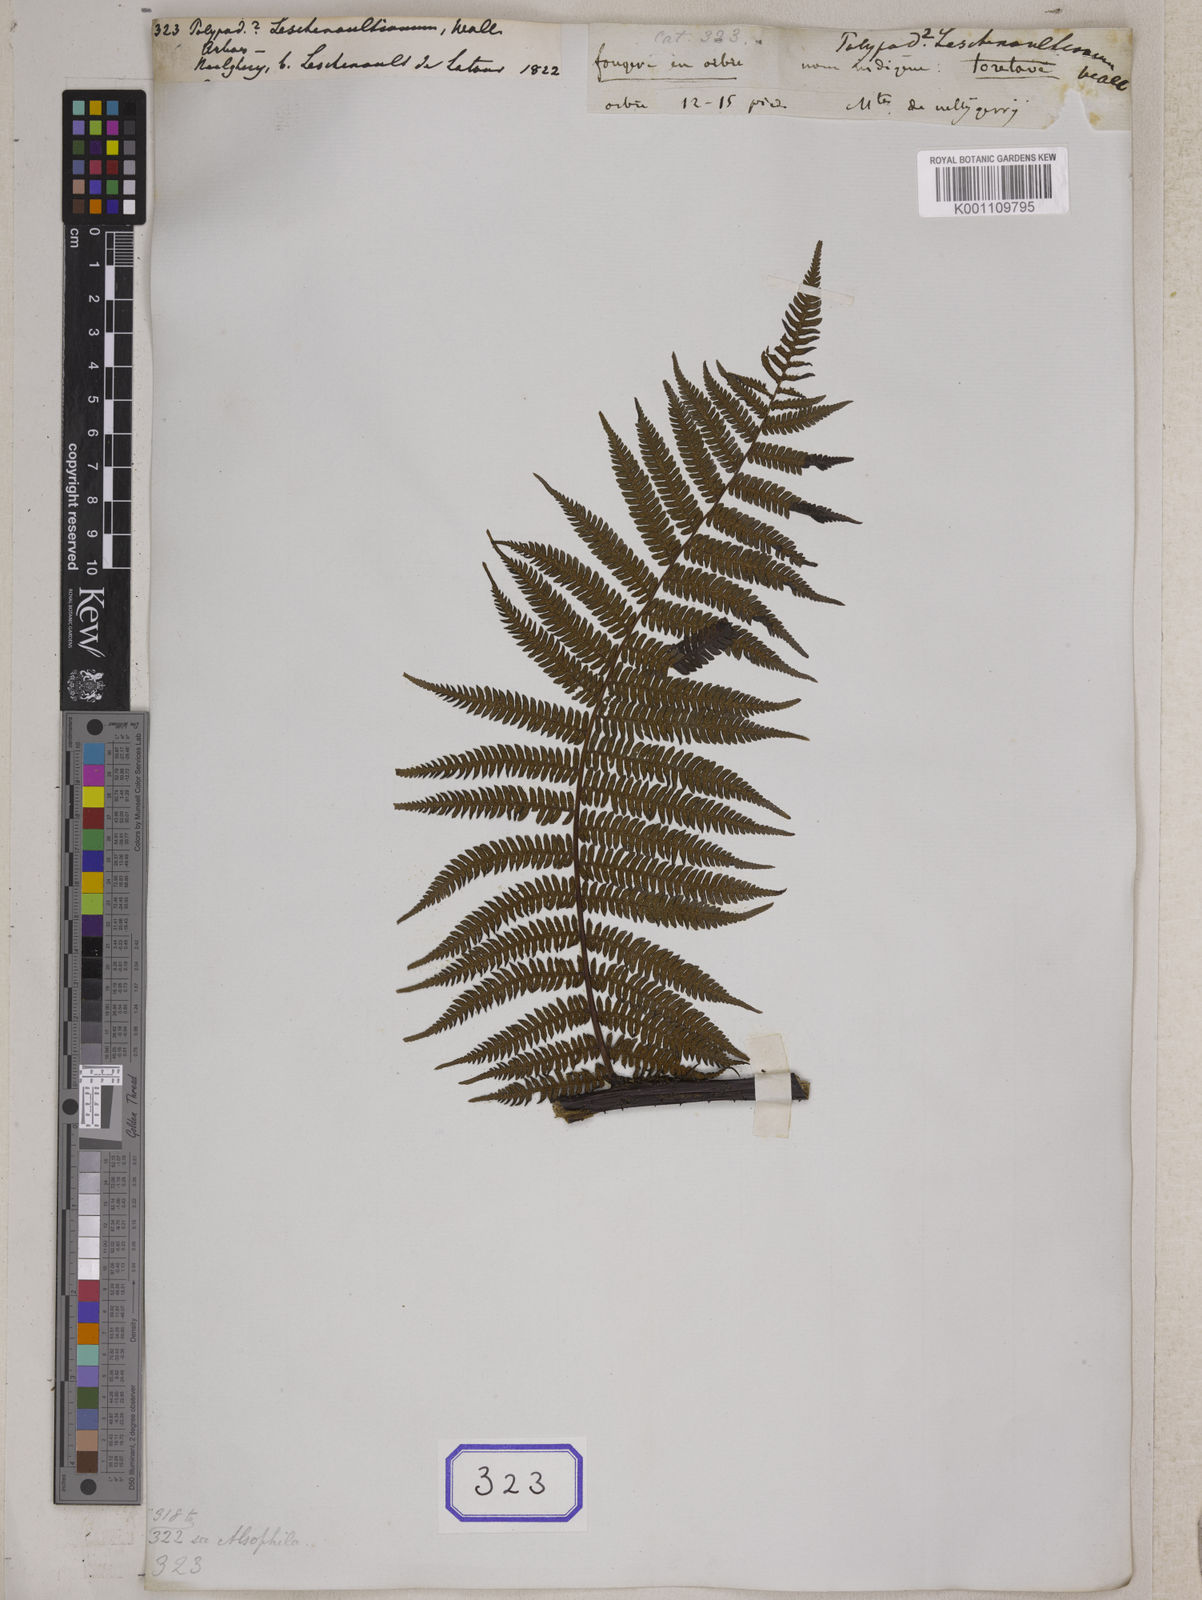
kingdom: Plantae
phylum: Tracheophyta
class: Polypodiopsida
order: Cyatheales
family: Cyatheaceae
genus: Alsophila
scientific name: Alsophila nilgirensis
